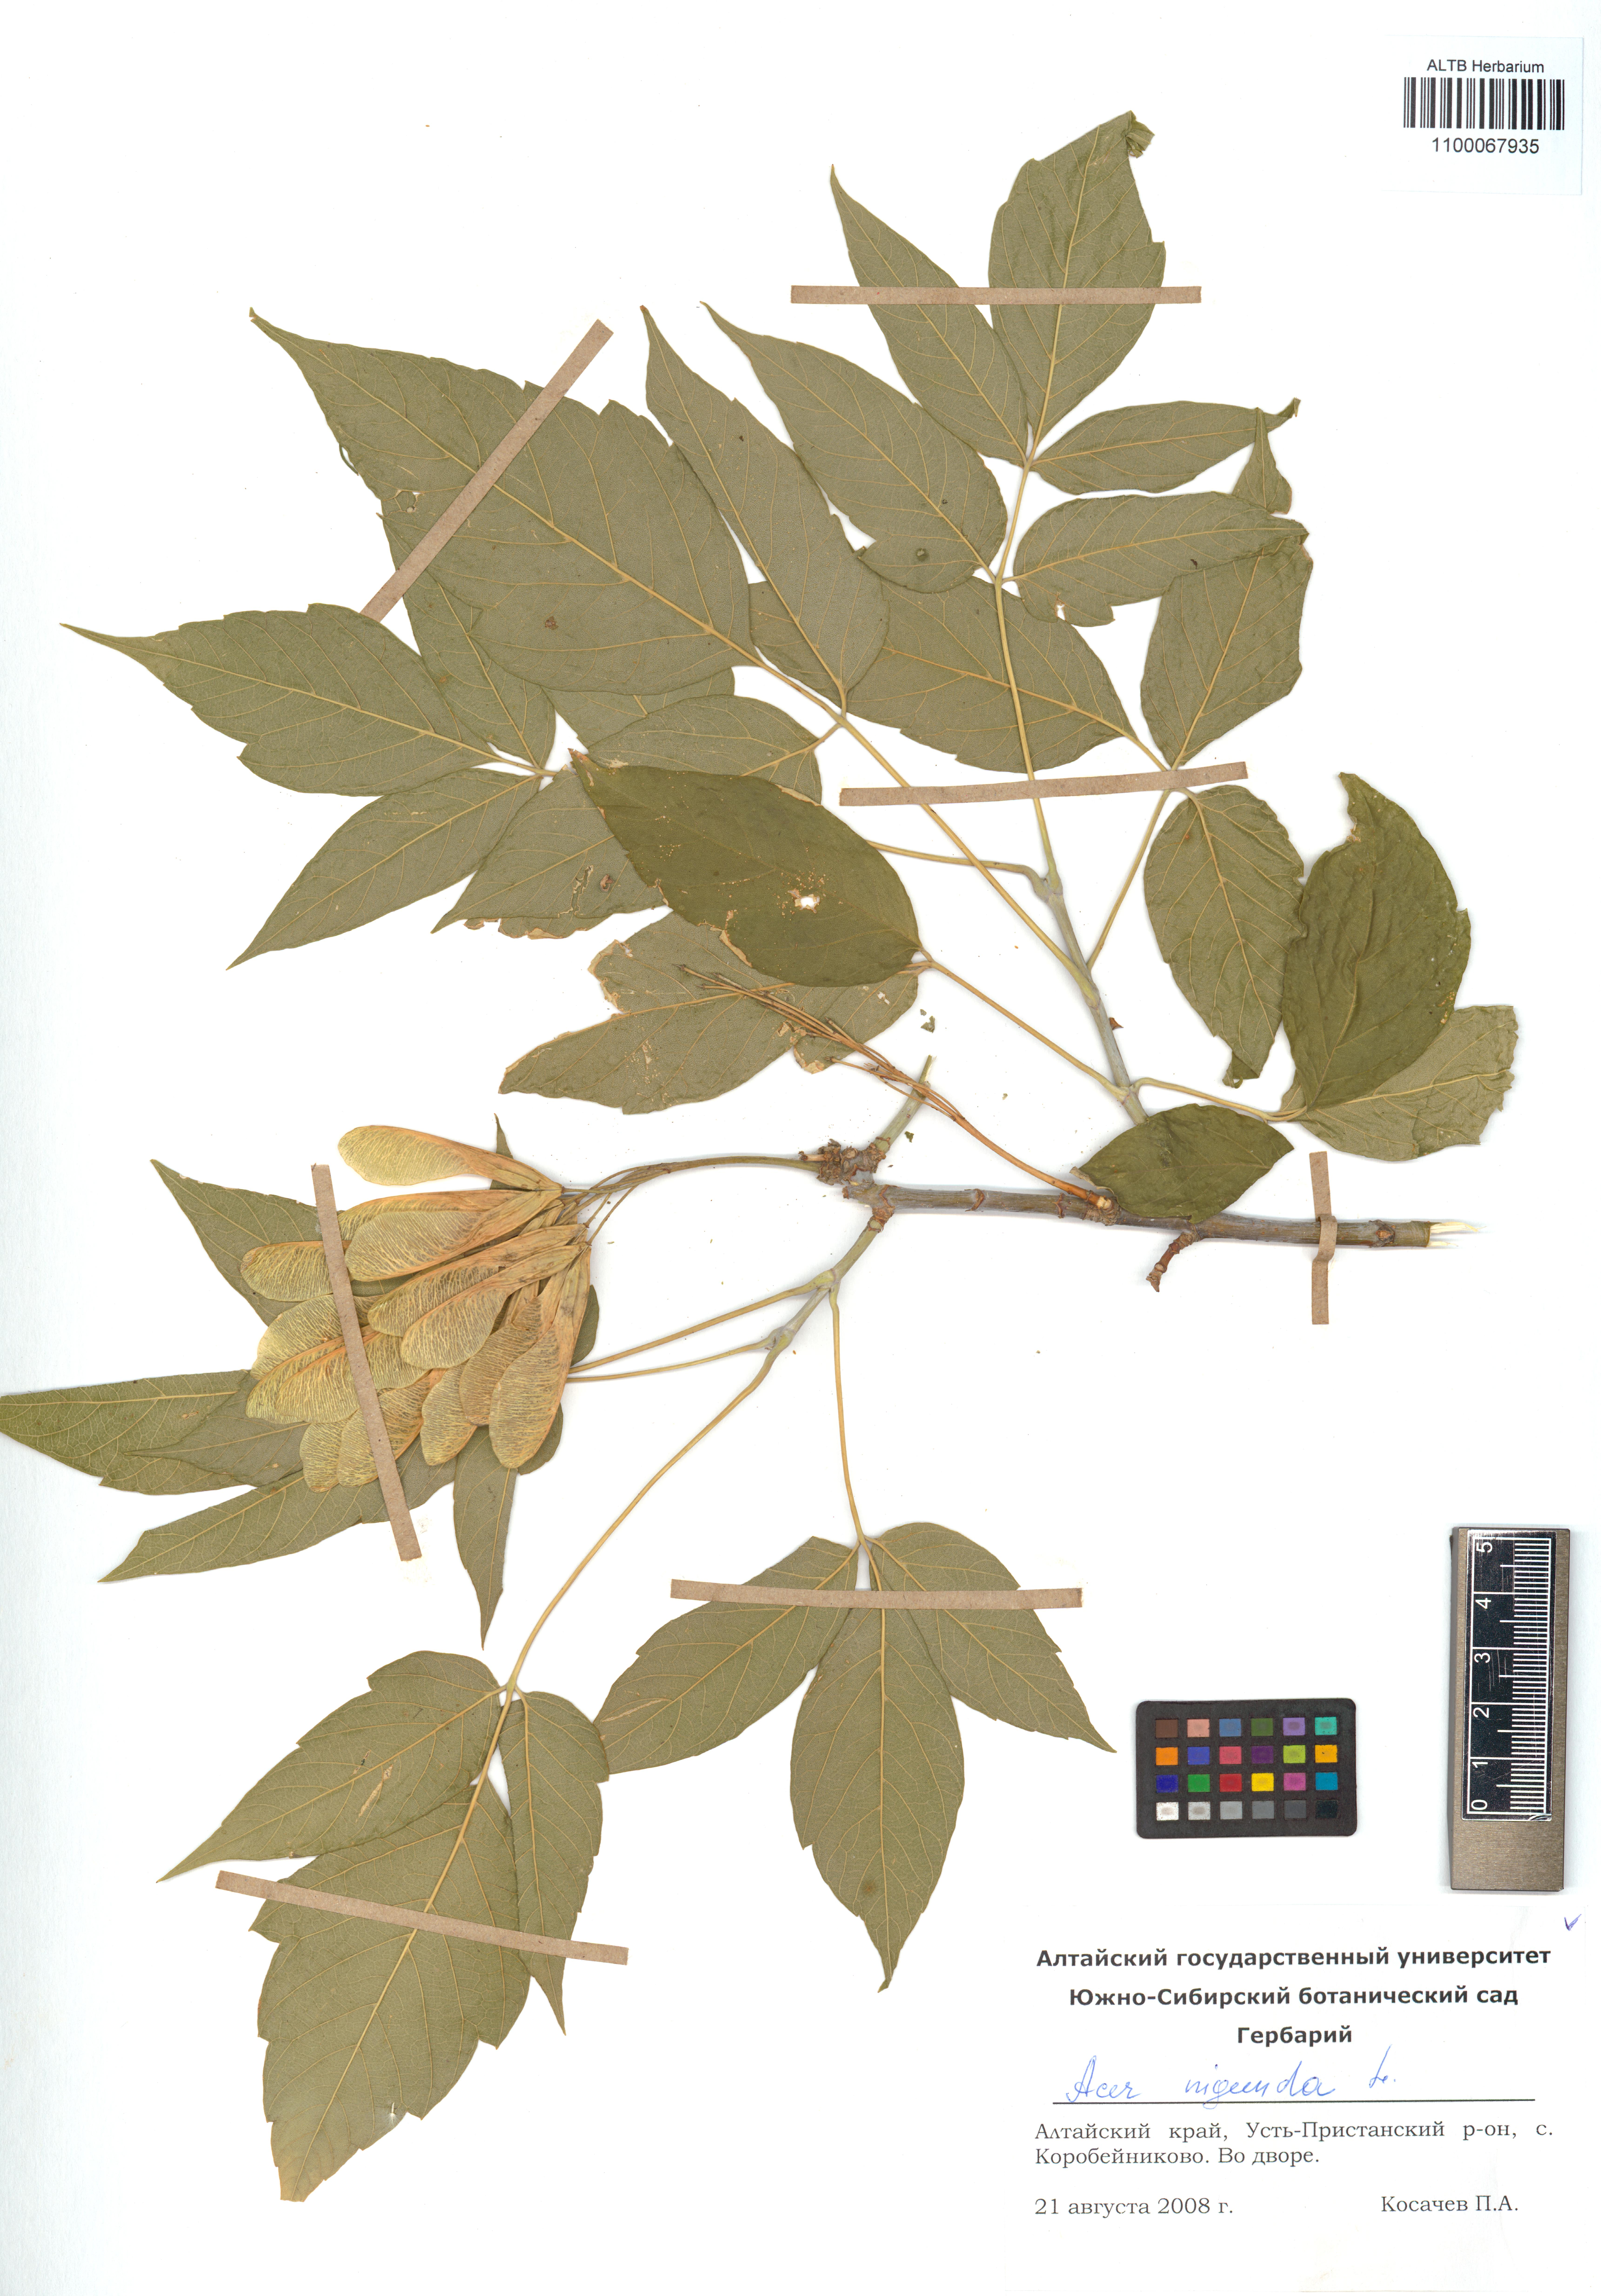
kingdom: Plantae
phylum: Tracheophyta
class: Magnoliopsida
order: Sapindales
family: Sapindaceae
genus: Acer
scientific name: Acer negundo
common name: Ashleaf maple
